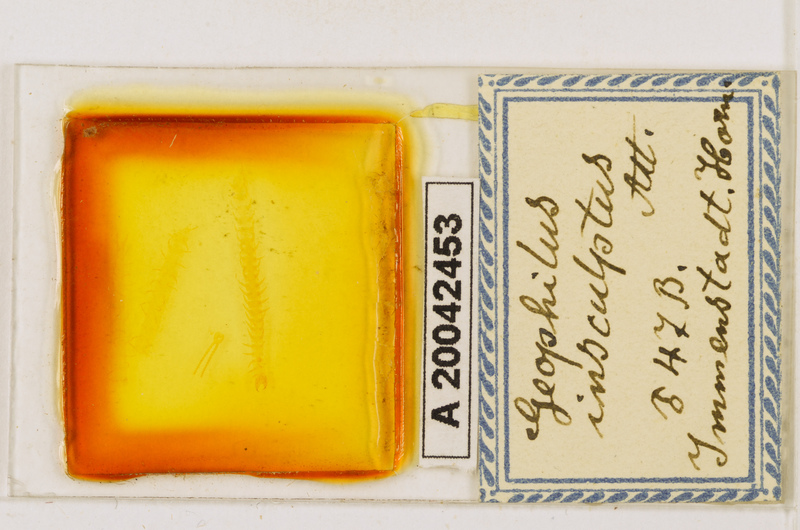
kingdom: Animalia
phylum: Arthropoda
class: Chilopoda
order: Geophilomorpha
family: Geophilidae
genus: Geophilus
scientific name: Geophilus insculptus
